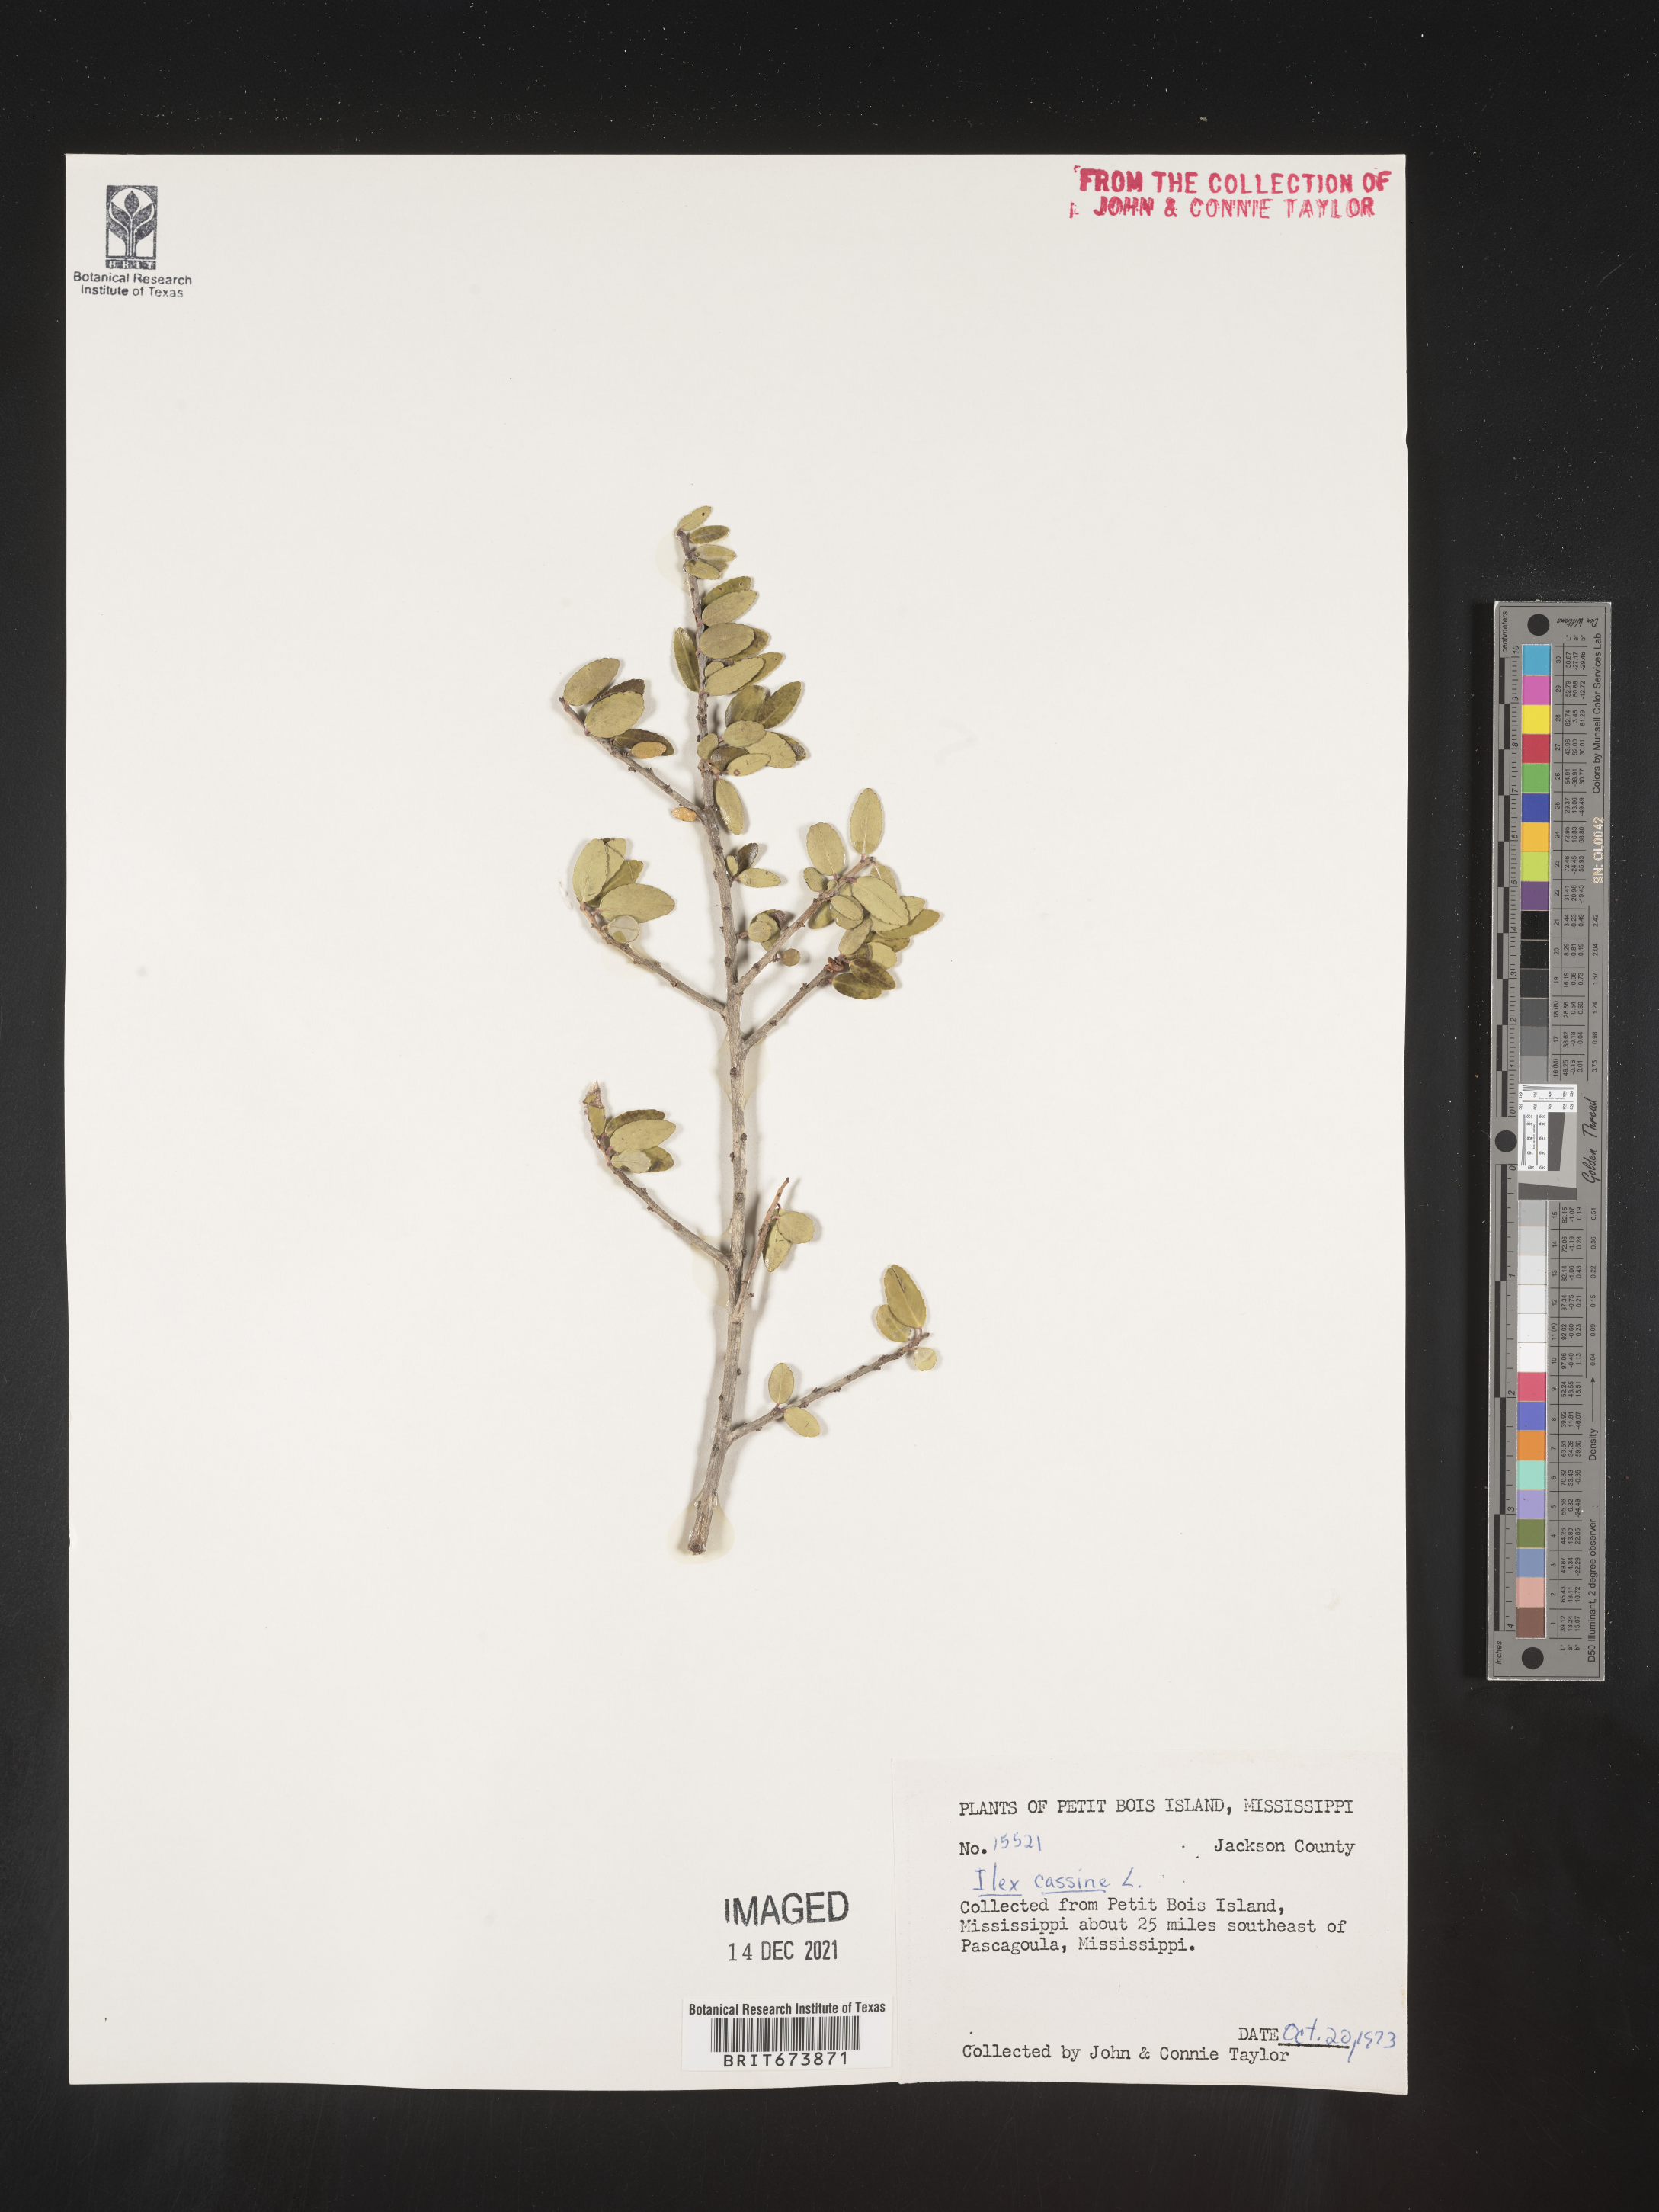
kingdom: Plantae
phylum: Tracheophyta
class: Magnoliopsida
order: Aquifoliales
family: Aquifoliaceae
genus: Ilex
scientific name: Ilex cassine
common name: Dahoon
